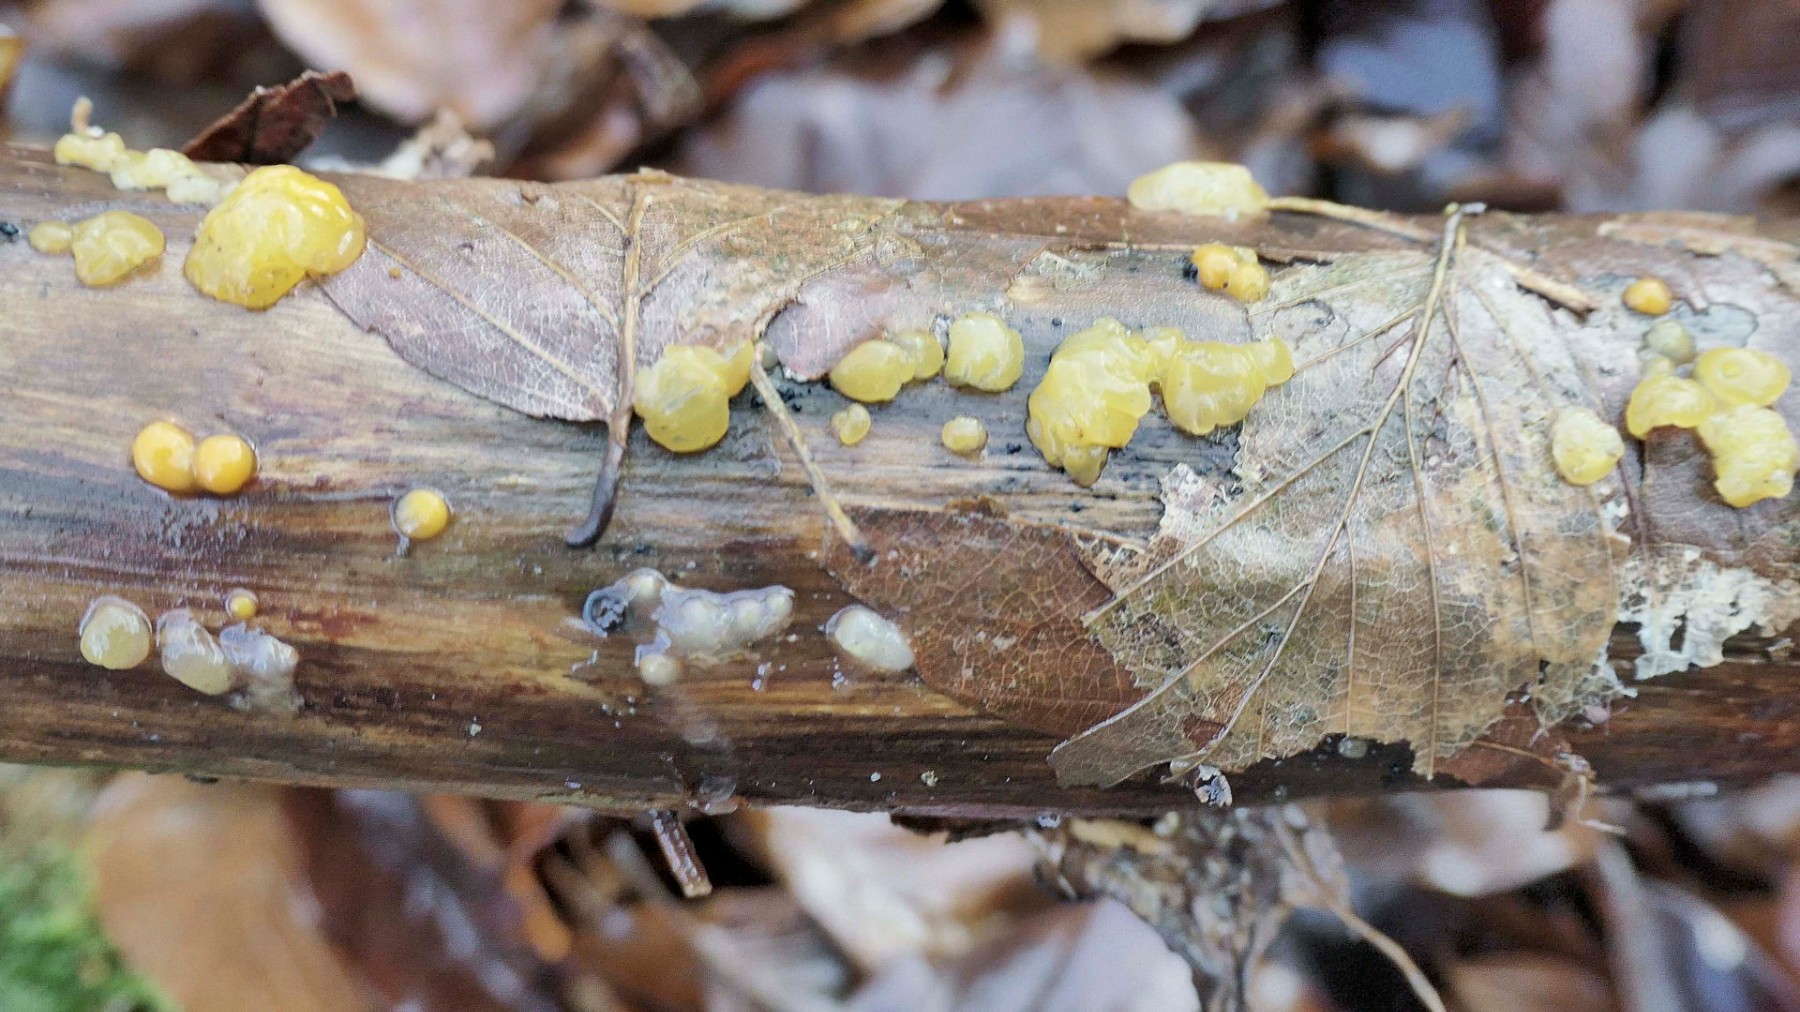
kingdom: Fungi
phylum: Basidiomycota
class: Dacrymycetes
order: Dacrymycetales
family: Dacrymycetaceae
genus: Dacrymyces
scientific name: Dacrymyces lacrymalis
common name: rynket tåresvamp
